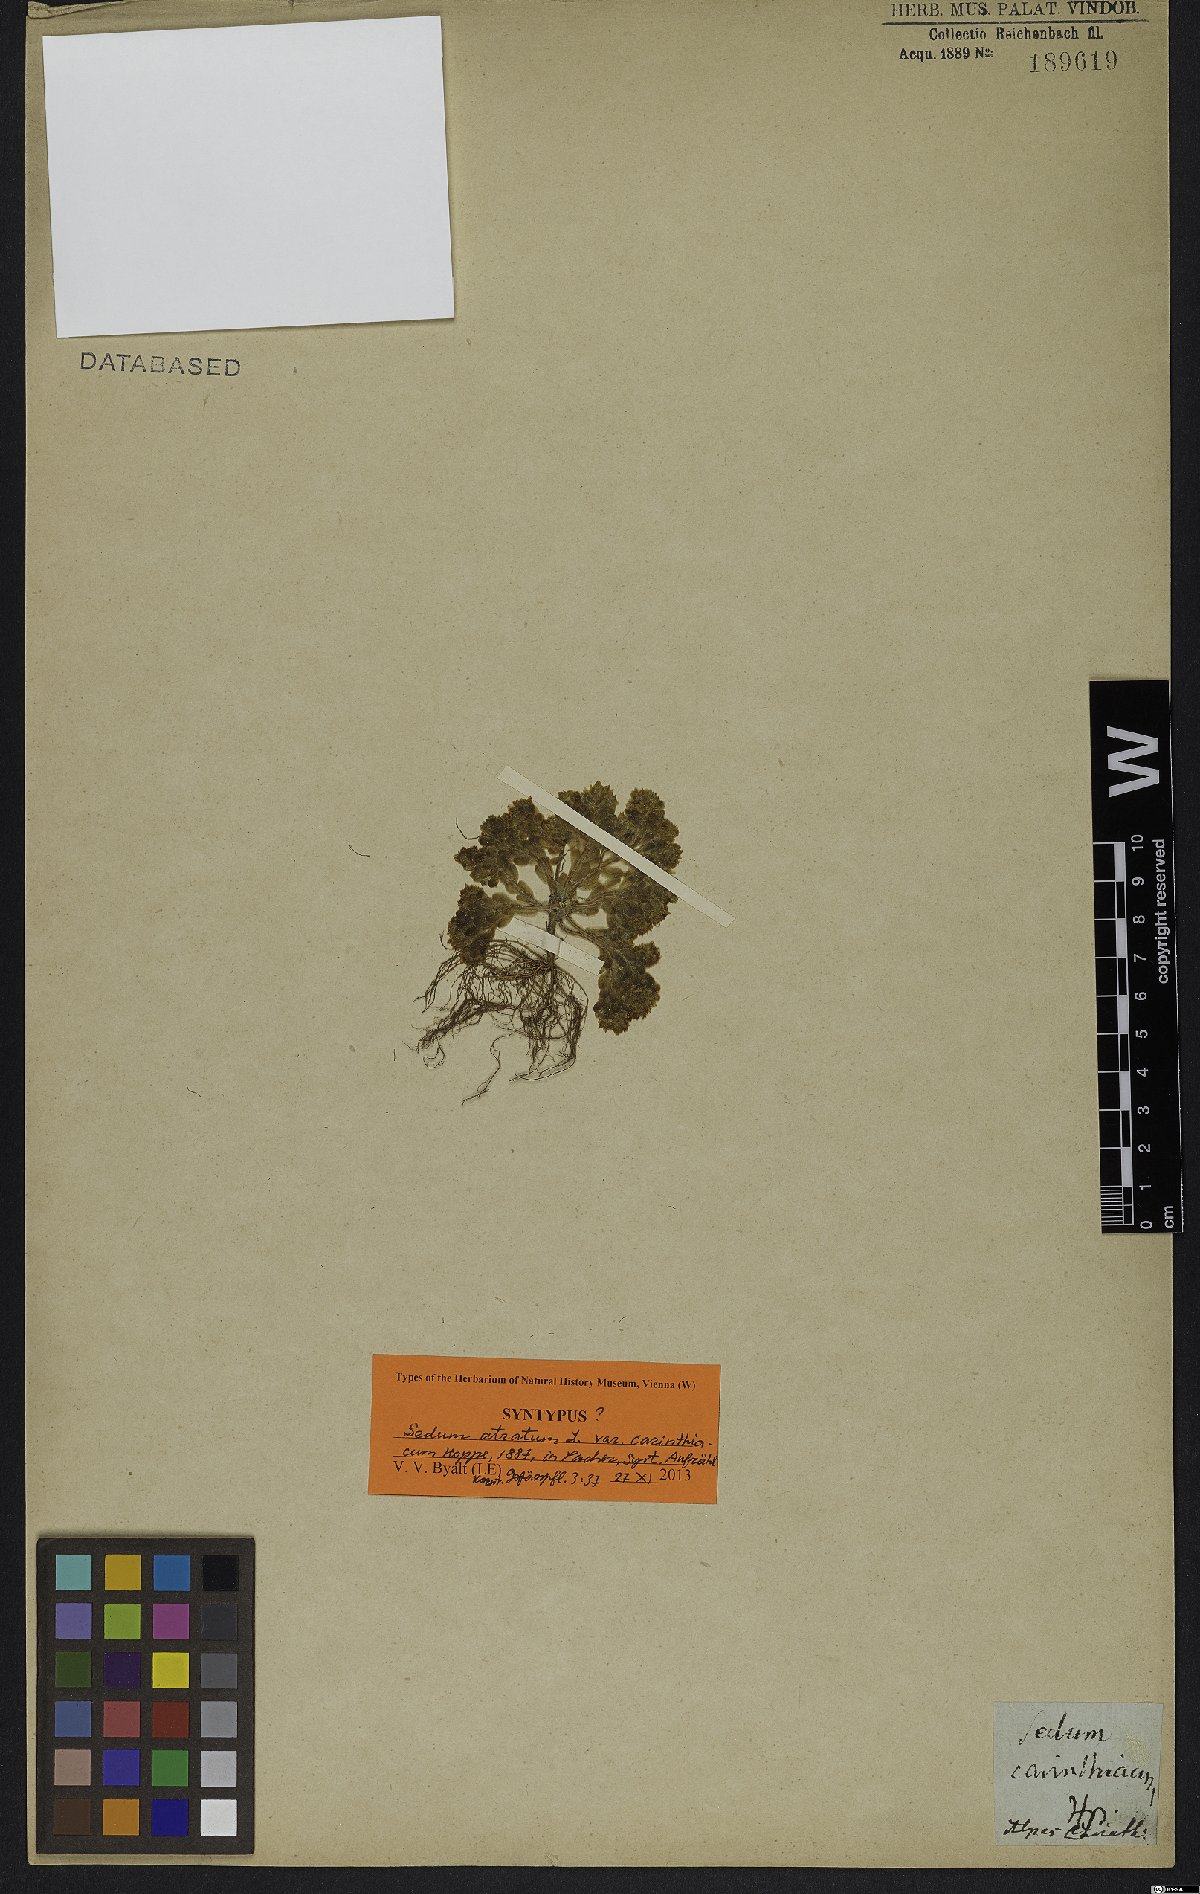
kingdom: Plantae
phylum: Tracheophyta
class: Magnoliopsida
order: Saxifragales
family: Crassulaceae
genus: Sedum
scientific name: Sedum atratum
